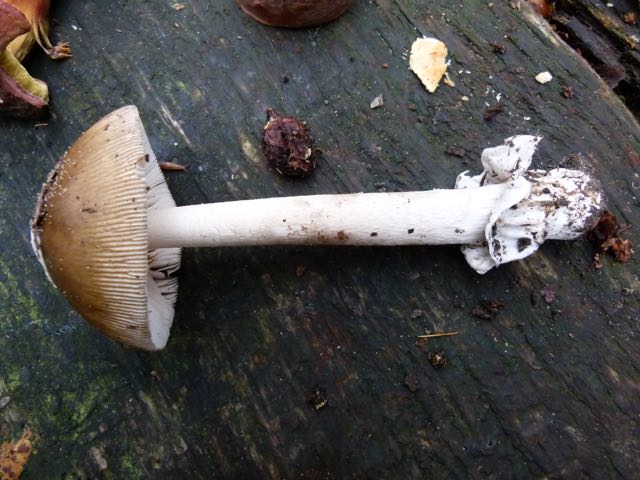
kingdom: Fungi
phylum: Basidiomycota
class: Agaricomycetes
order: Agaricales
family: Amanitaceae
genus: Amanita
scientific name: Amanita submembranacea
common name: gråspættet kam-fluesvamp
